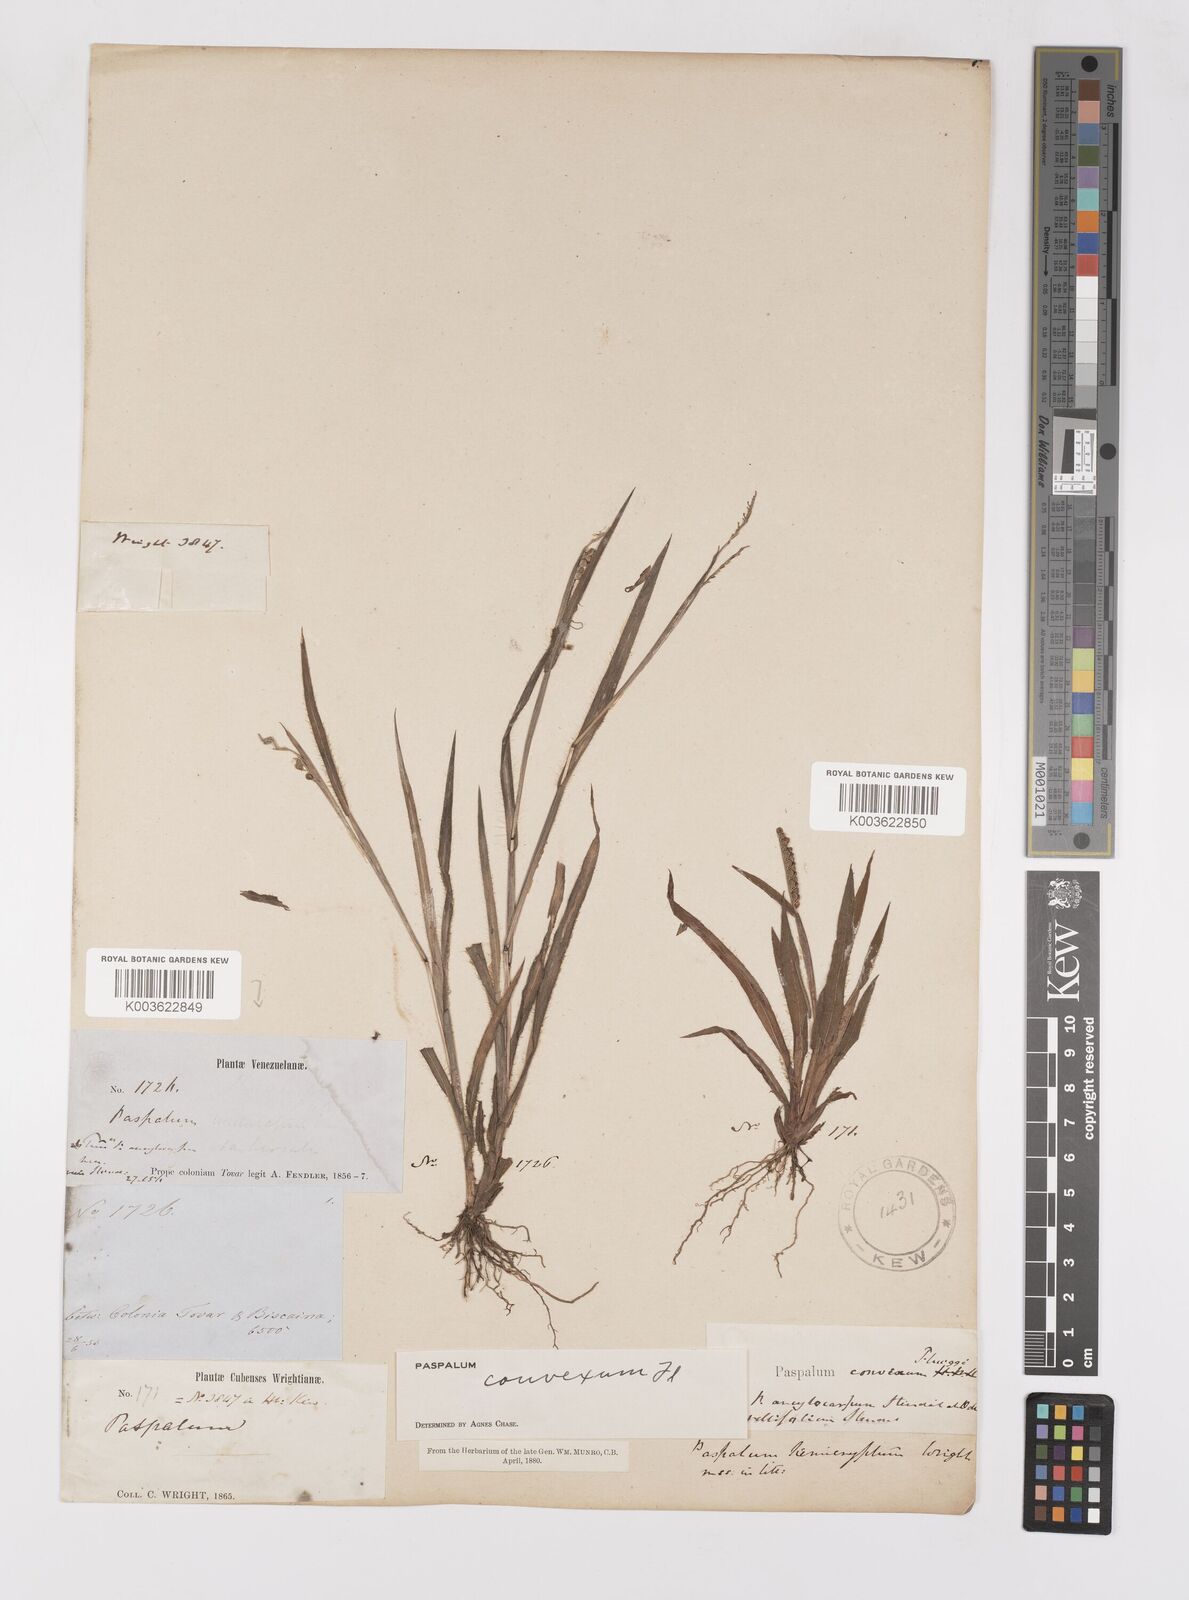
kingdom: Plantae
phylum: Tracheophyta
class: Liliopsida
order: Poales
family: Poaceae
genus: Paspalum
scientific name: Paspalum glabrinode
